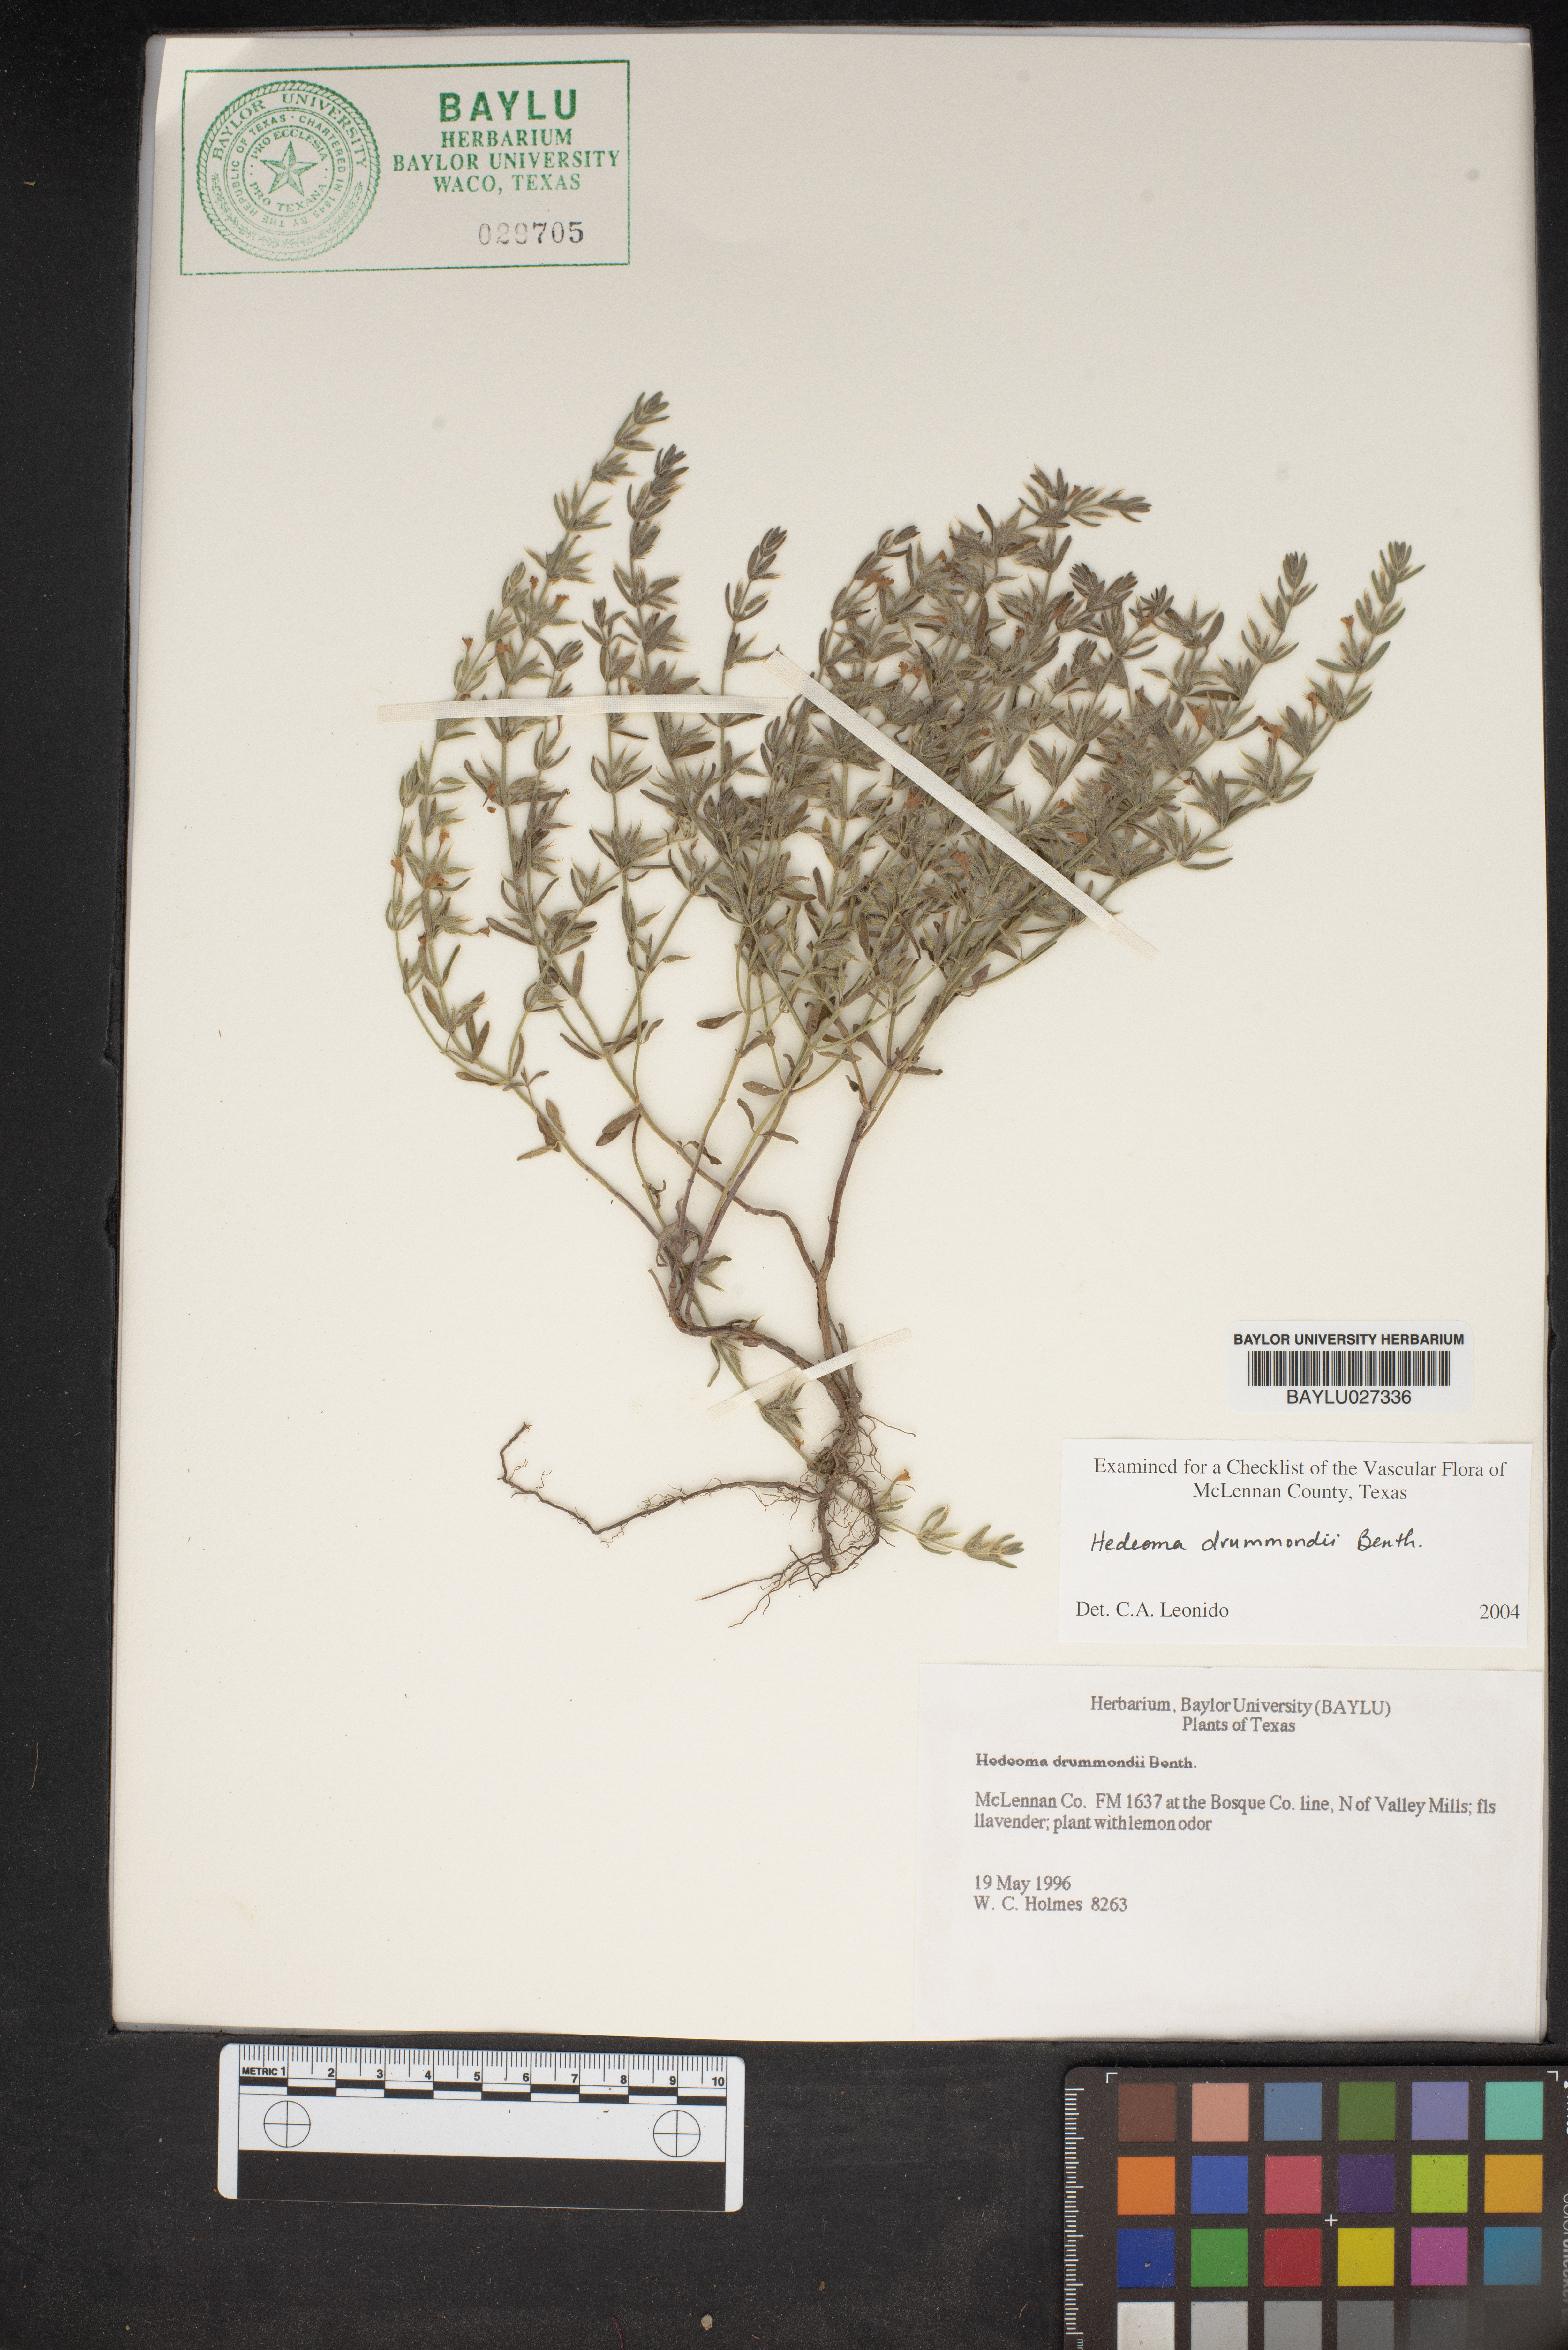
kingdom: Plantae
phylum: Tracheophyta
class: Magnoliopsida
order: Lamiales
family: Lamiaceae
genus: Hedeoma
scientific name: Hedeoma drummondii
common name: New mexico pennyroyal
